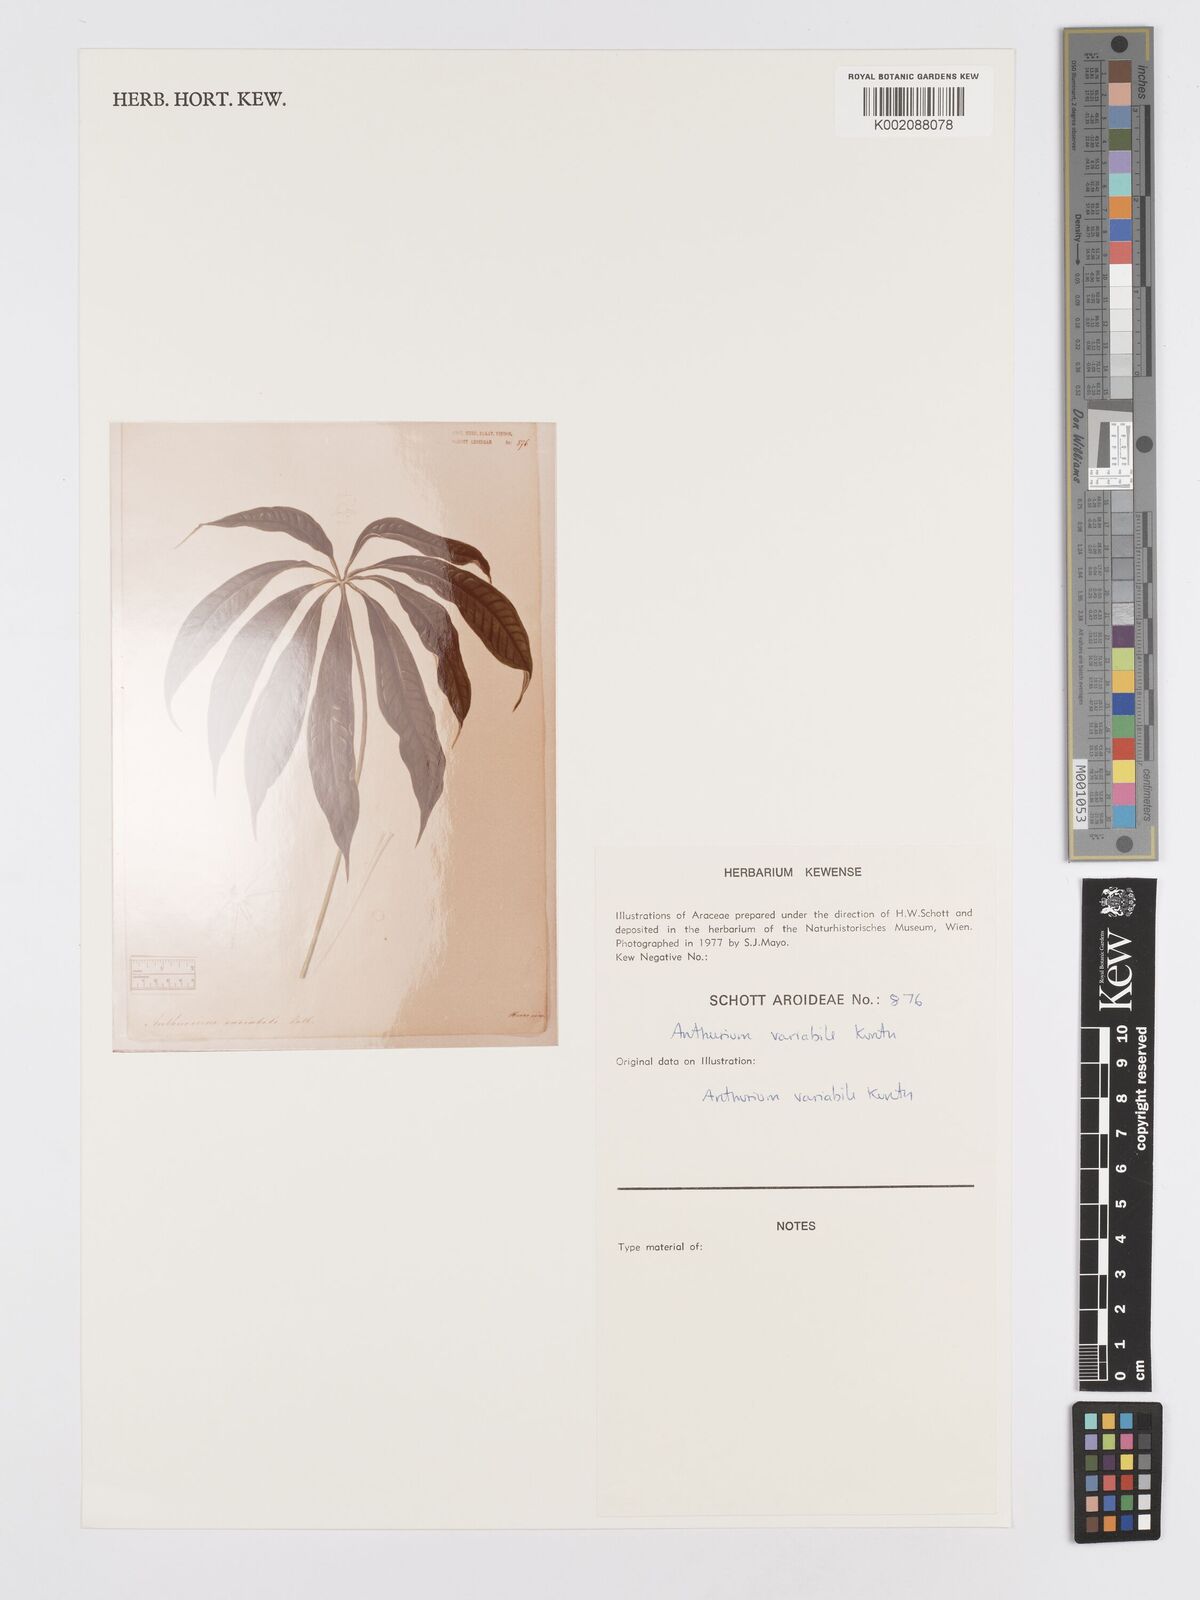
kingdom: Plantae
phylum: Tracheophyta
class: Liliopsida
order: Alismatales
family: Araceae
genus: Anthurium
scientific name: Anthurium pentaphyllum
